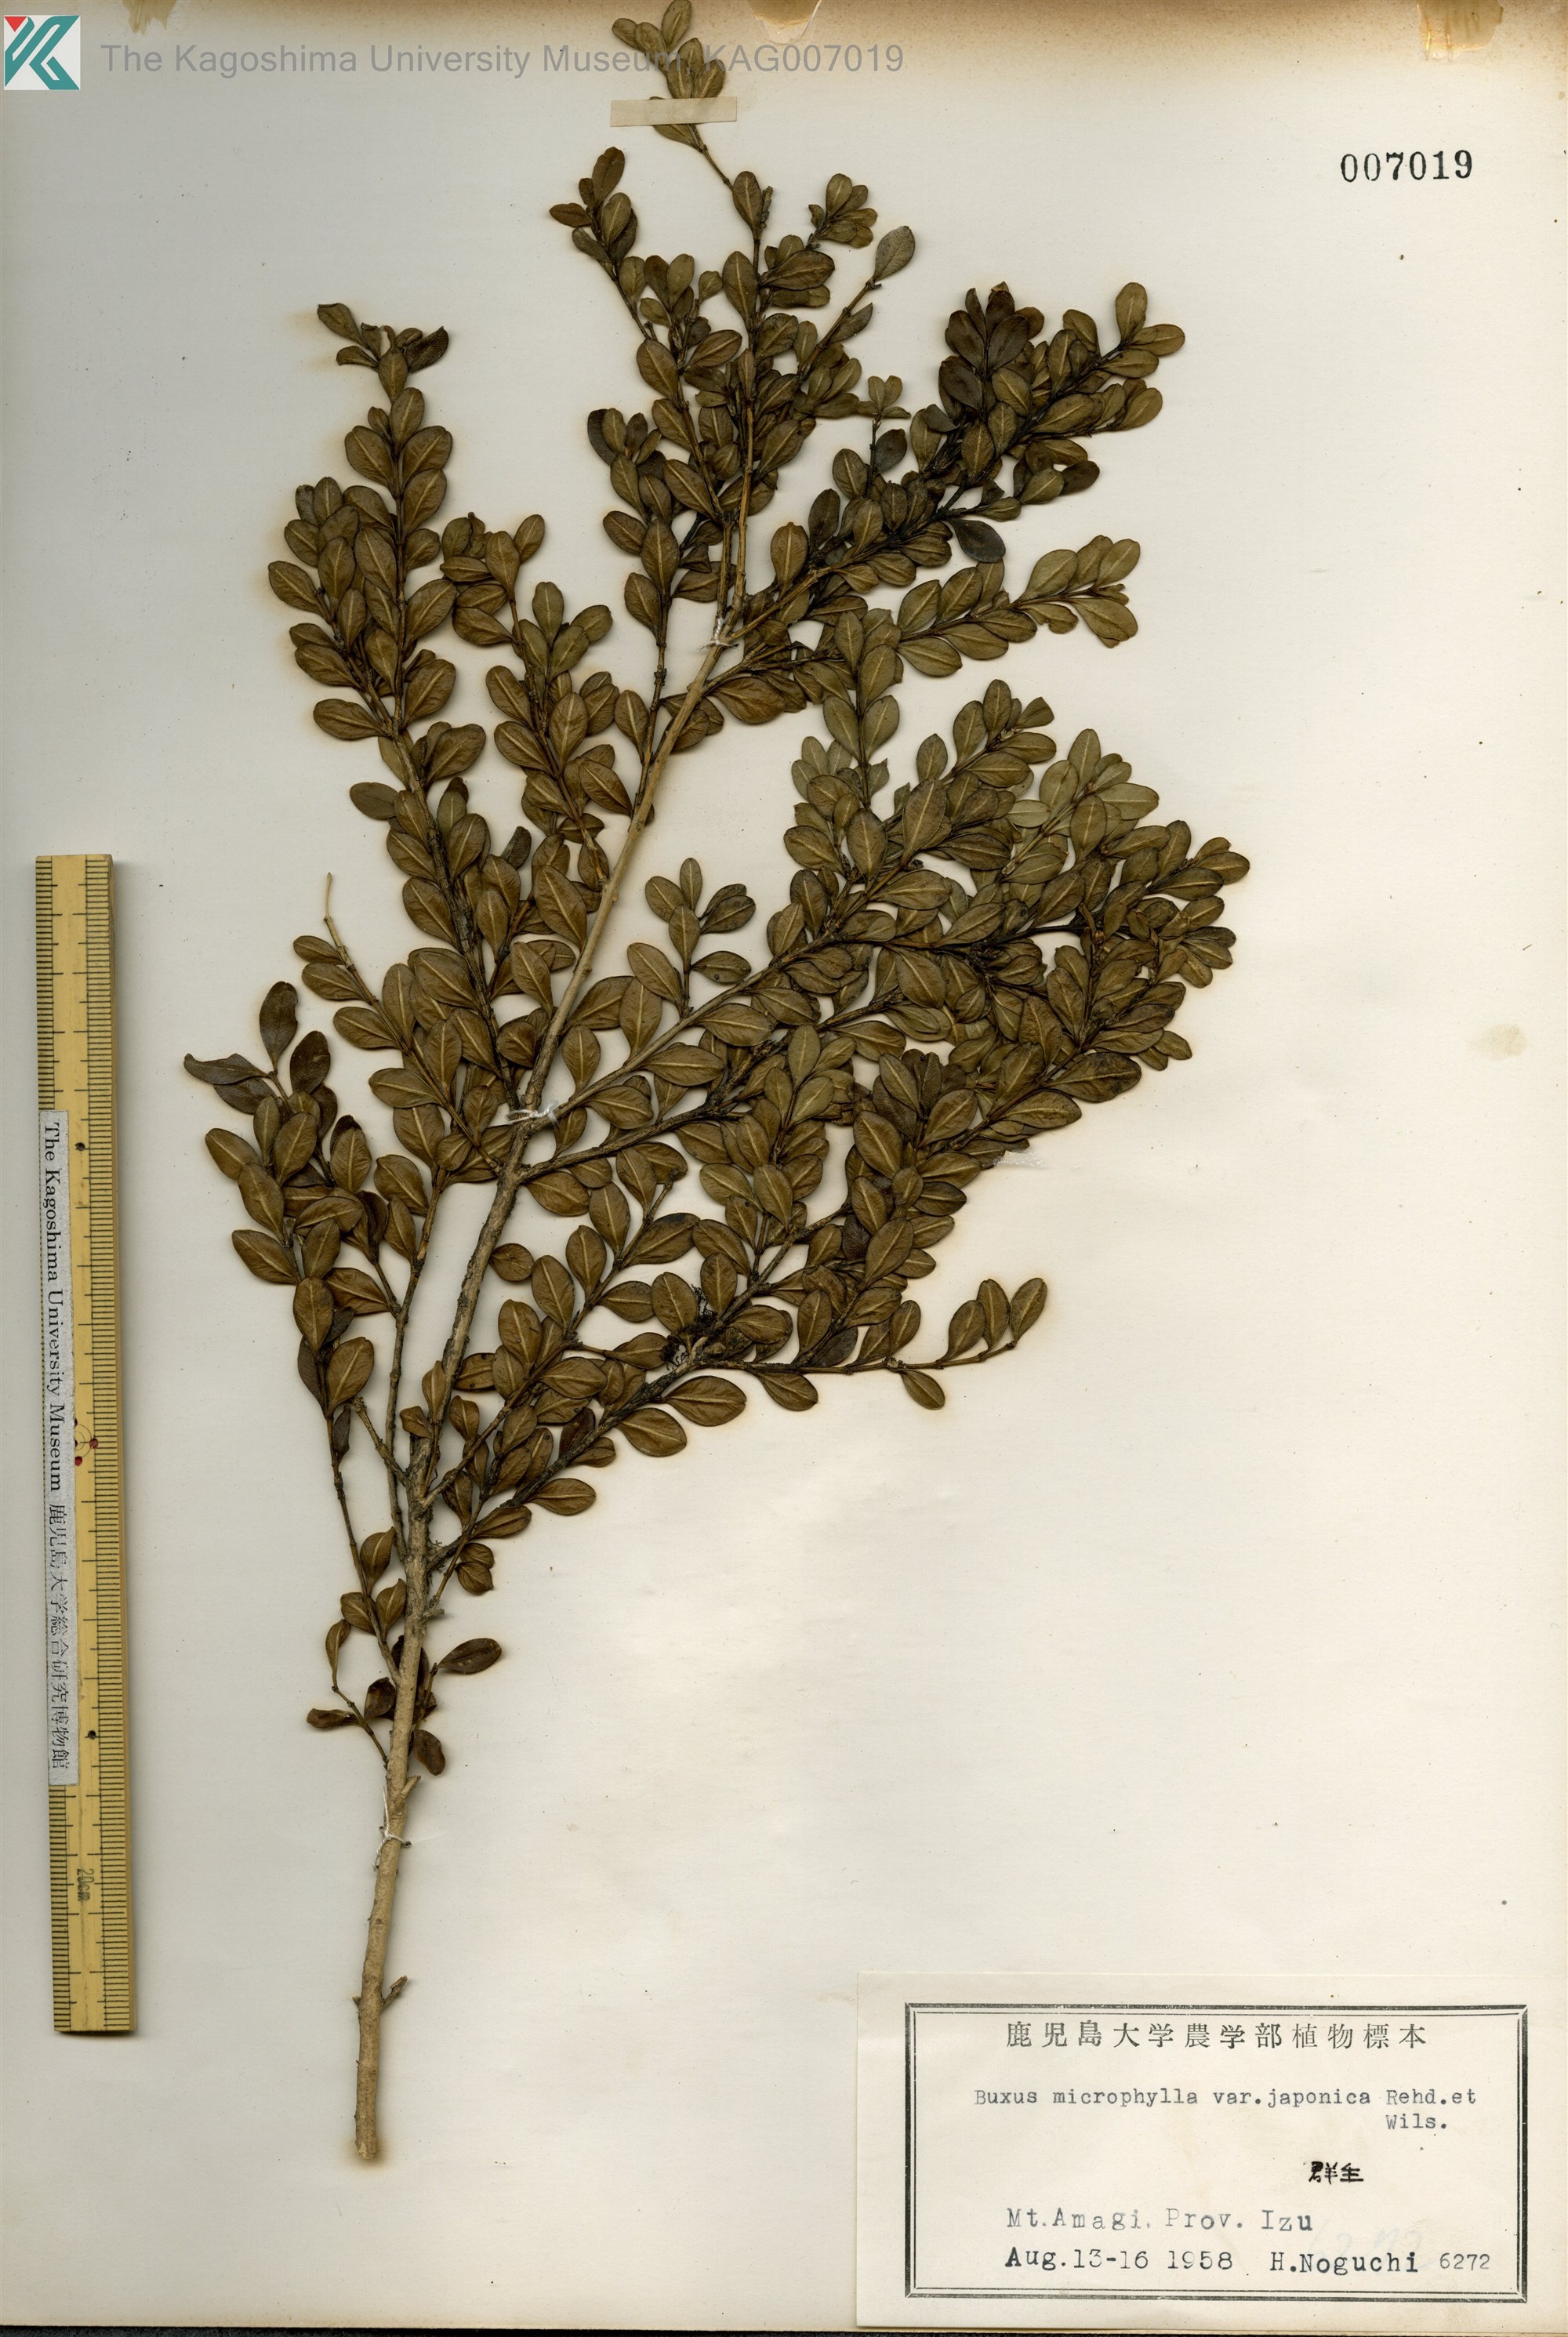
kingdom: Plantae
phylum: Tracheophyta
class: Magnoliopsida
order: Buxales
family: Buxaceae
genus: Buxus
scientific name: Buxus microphylla
